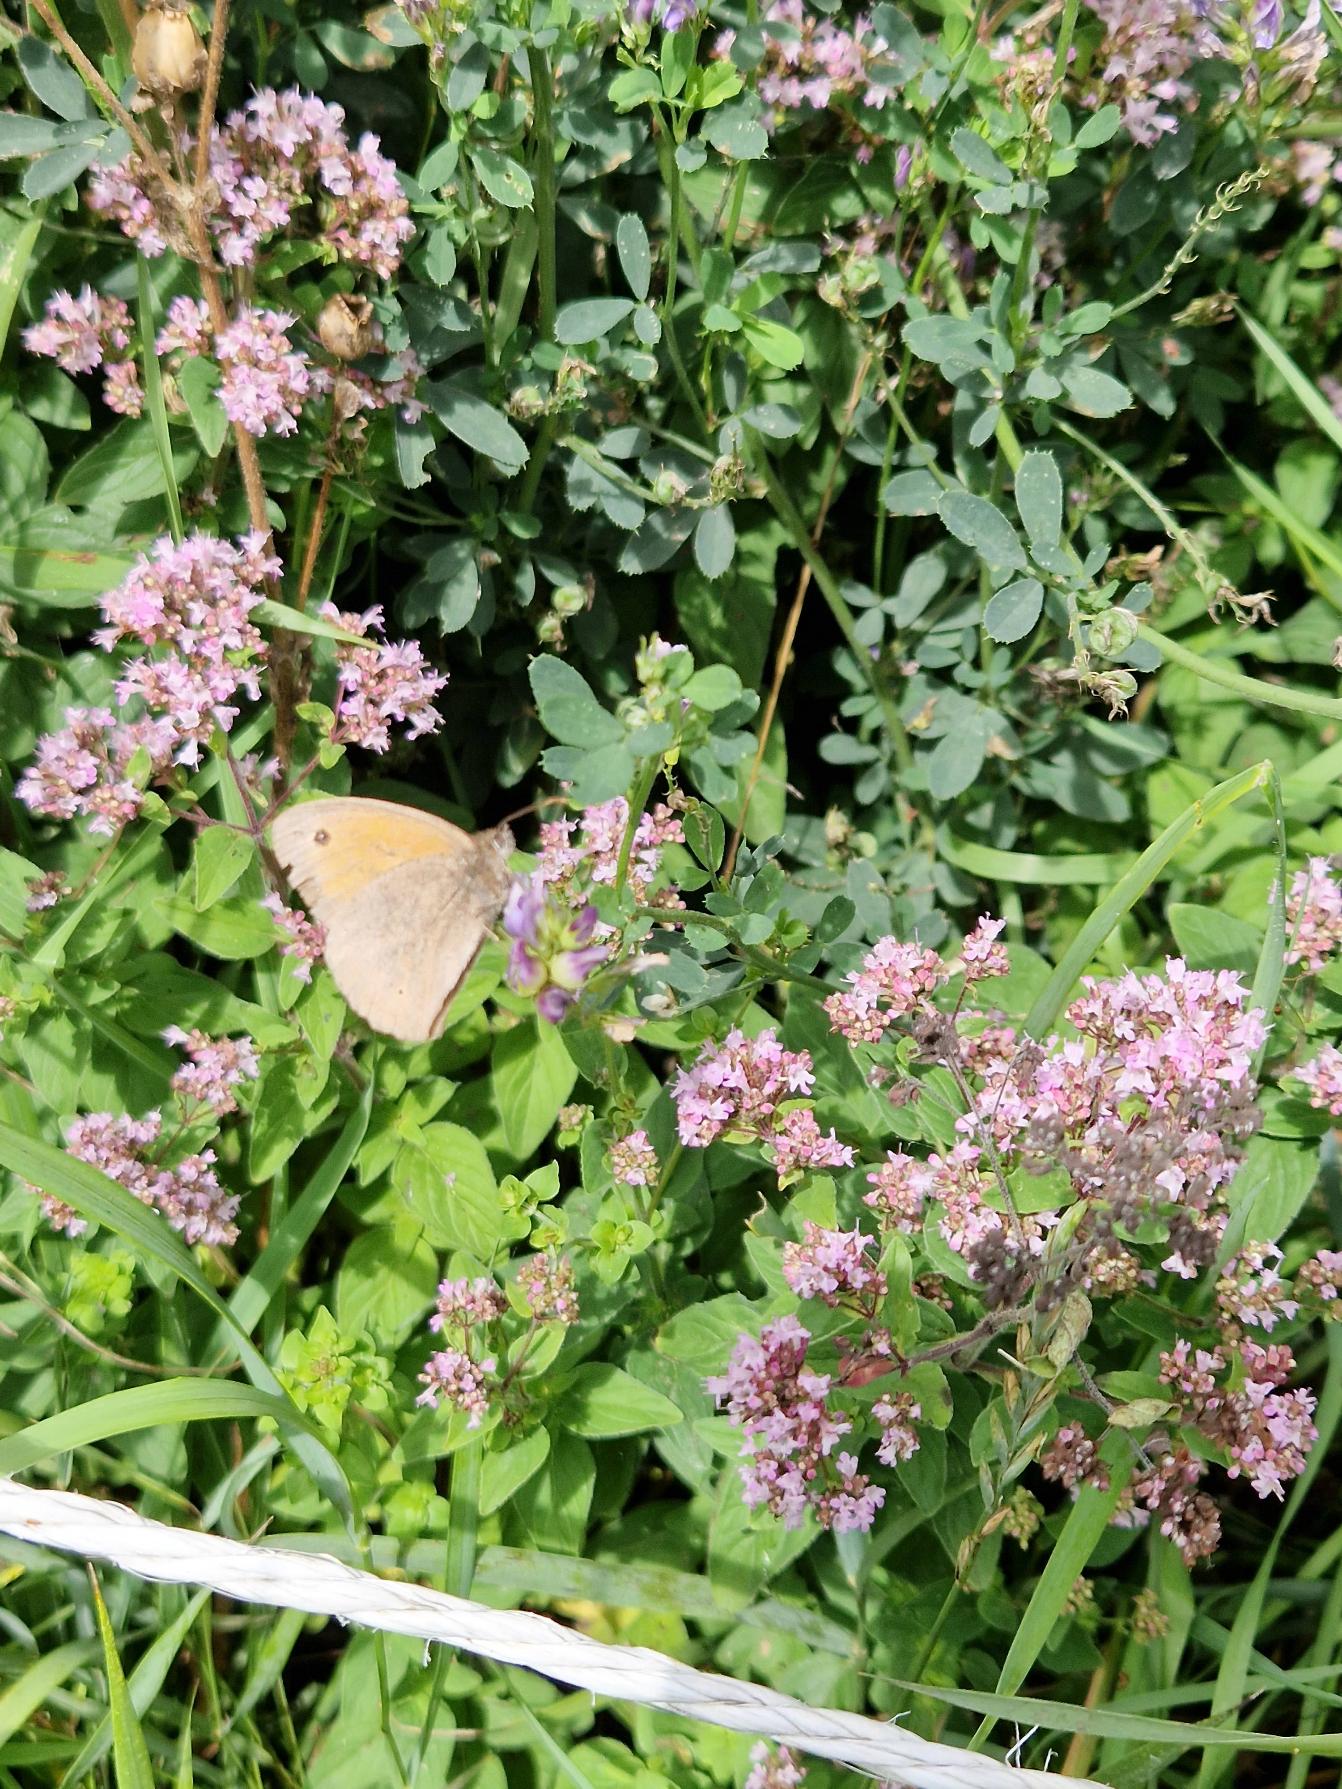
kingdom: Animalia
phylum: Arthropoda
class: Insecta
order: Lepidoptera
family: Nymphalidae
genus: Maniola
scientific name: Maniola jurtina
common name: Græsrandøje
